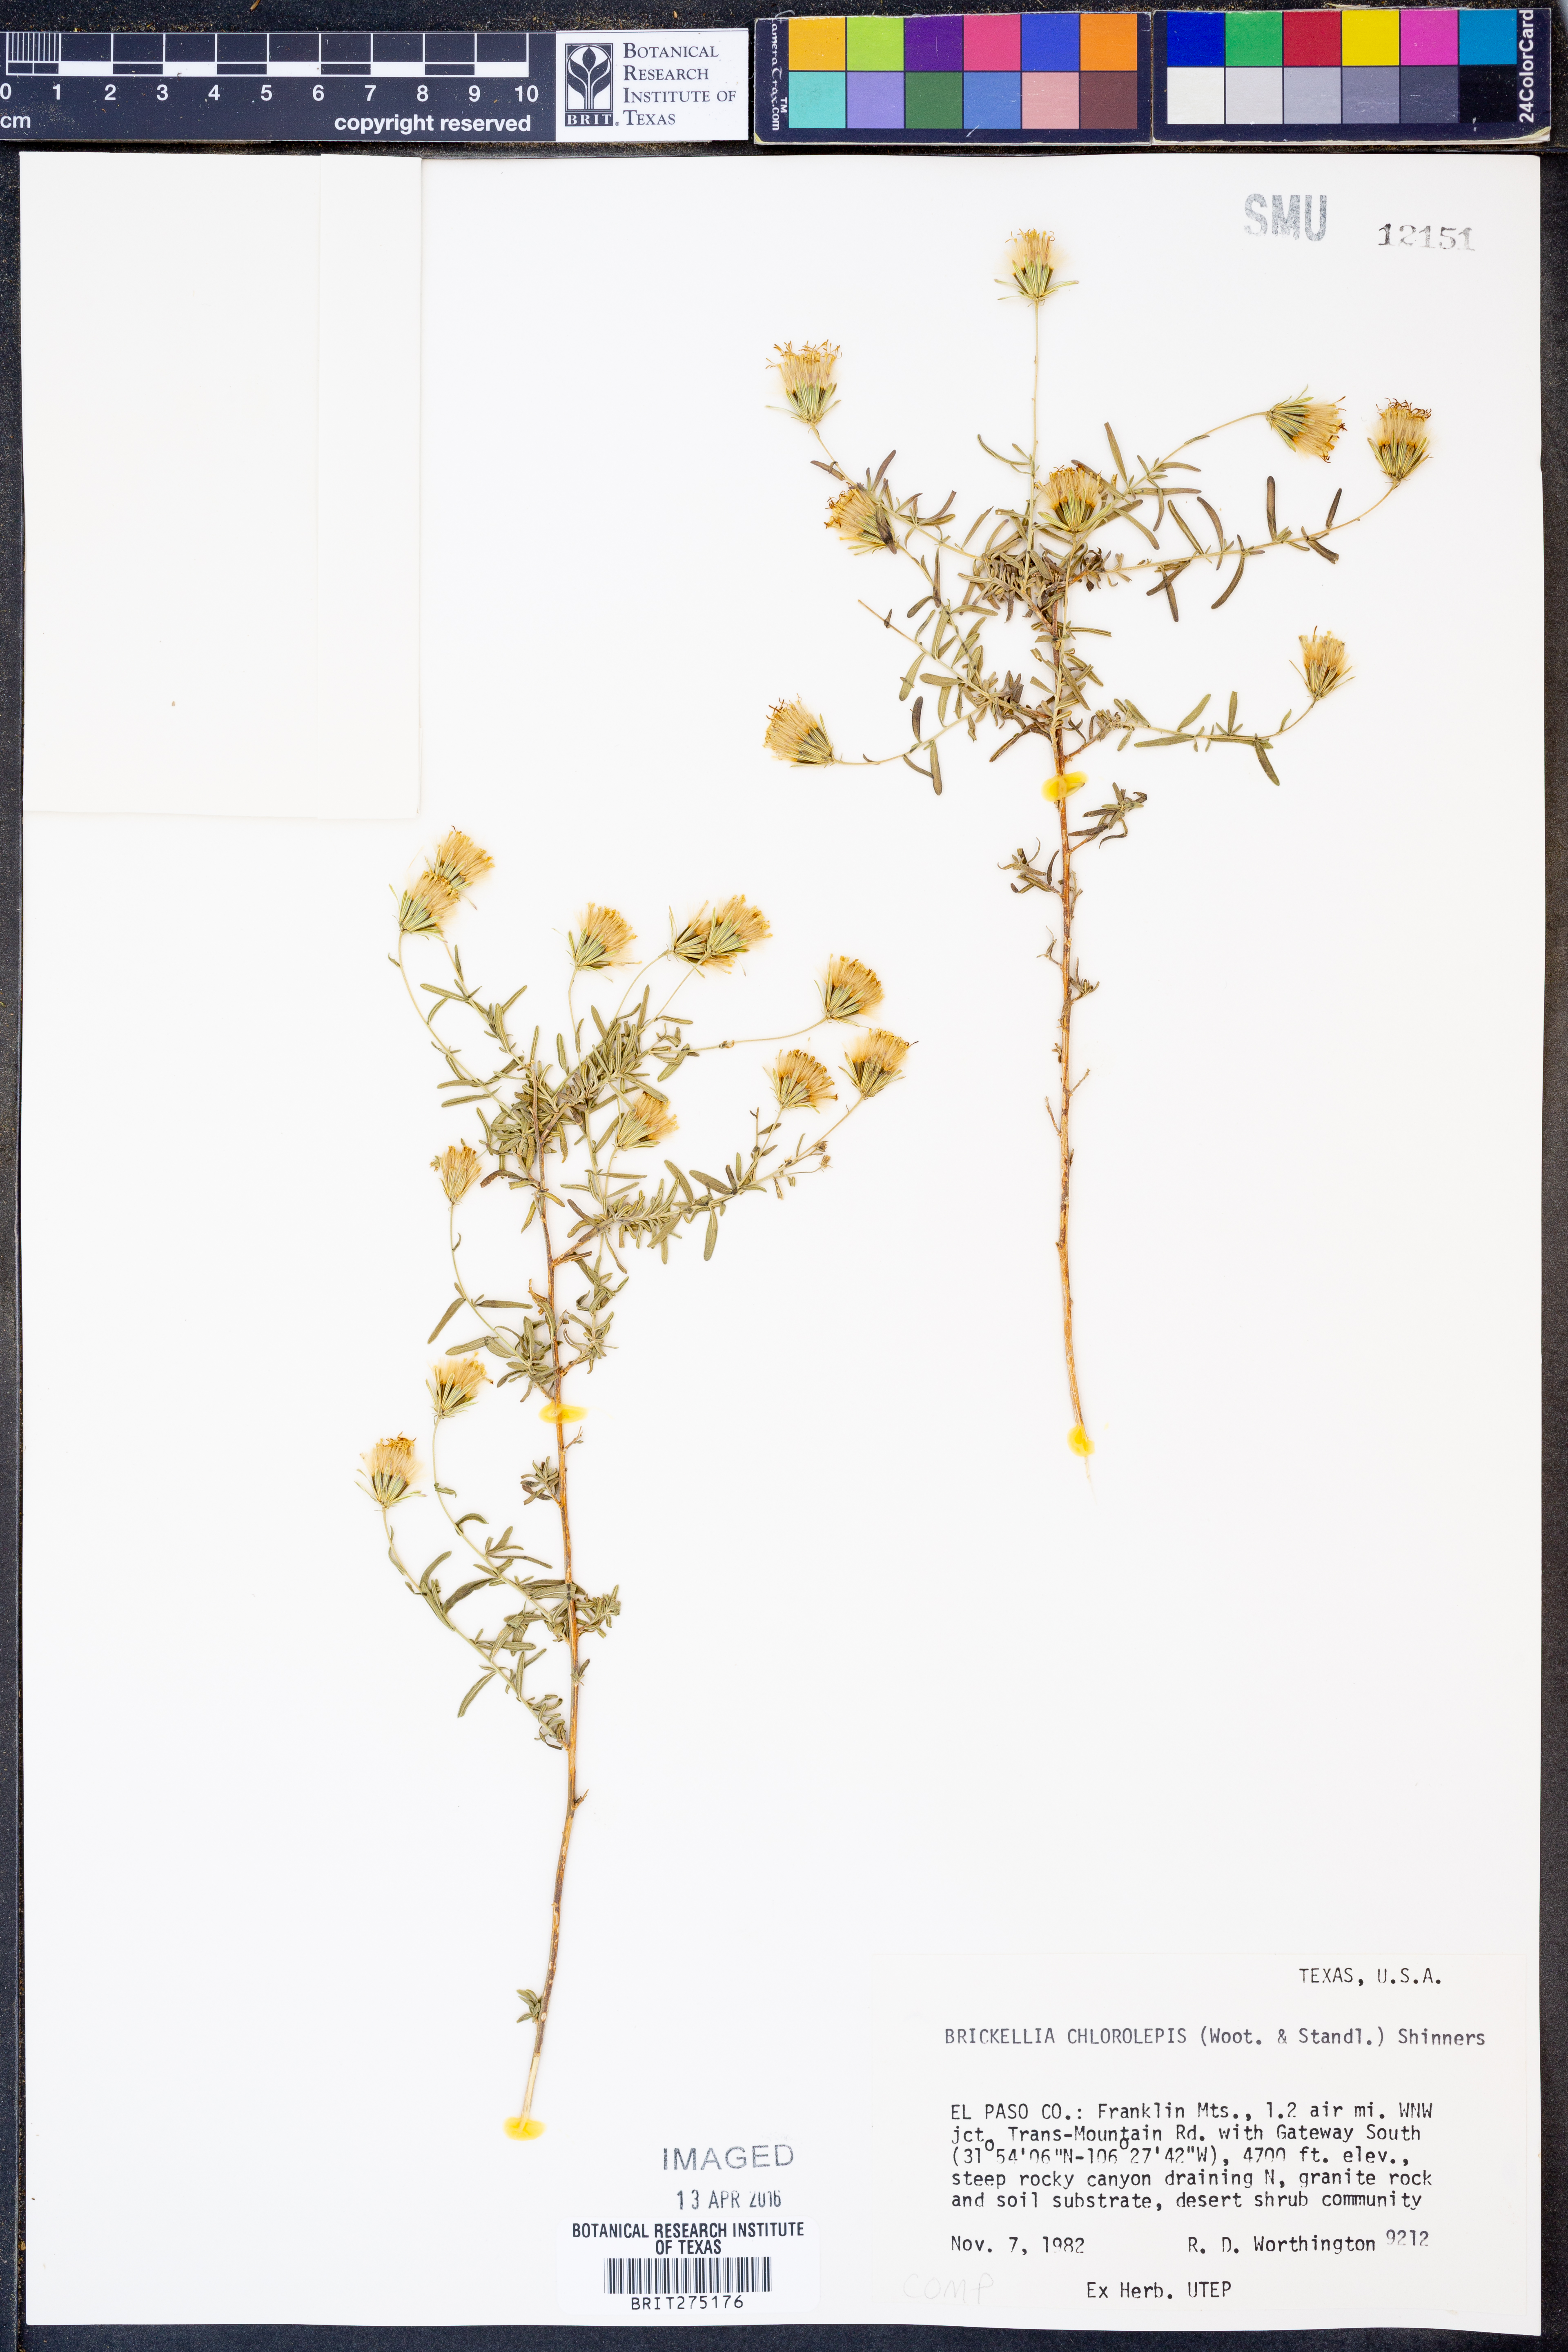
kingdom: Plantae
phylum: Tracheophyta
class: Magnoliopsida
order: Asterales
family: Asteraceae
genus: Brickellia
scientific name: Brickellia leptophylla
